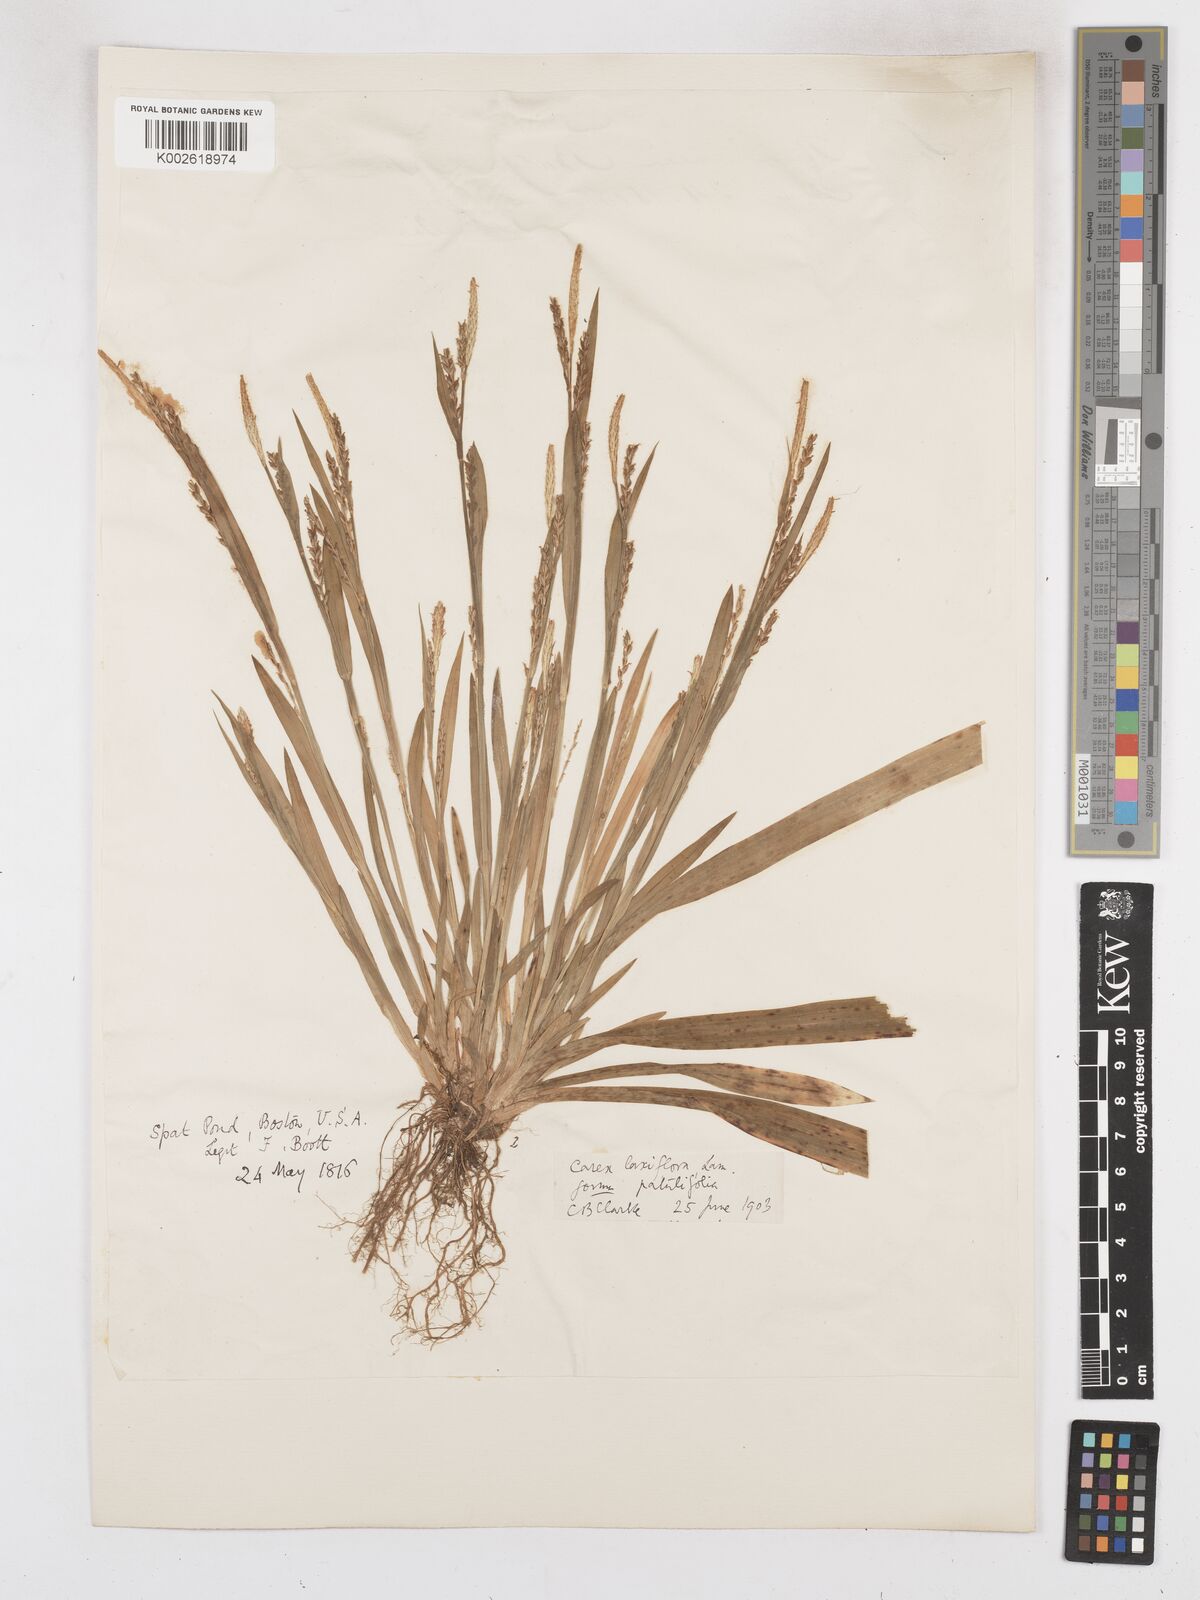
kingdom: Plantae
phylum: Tracheophyta
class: Liliopsida
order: Poales
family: Cyperaceae
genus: Carex
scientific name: Carex striatula
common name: Lined sedge
